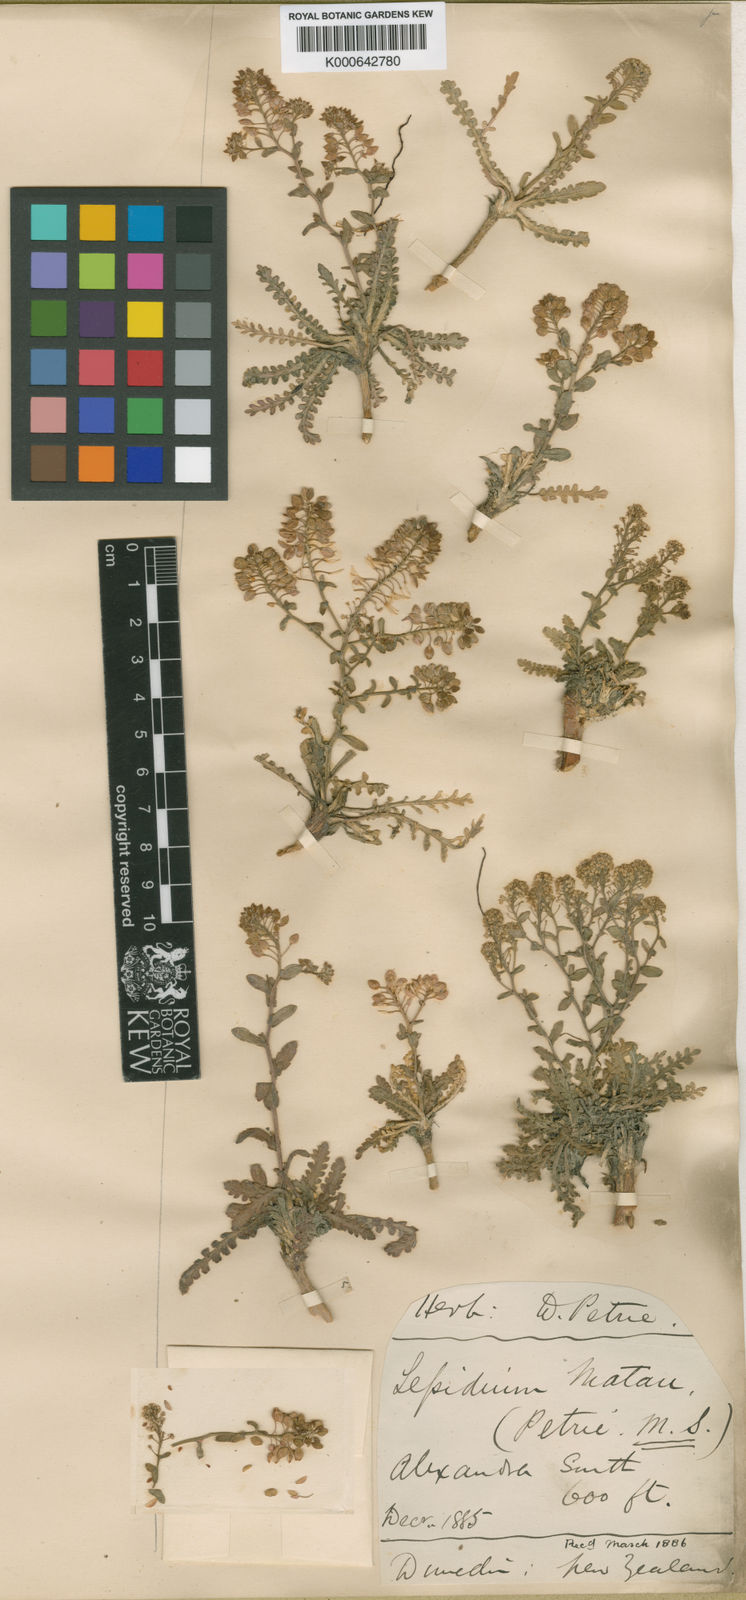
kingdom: Plantae
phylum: Tracheophyta
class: Magnoliopsida
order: Brassicales
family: Brassicaceae
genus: Lepidium
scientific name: Lepidium matau
